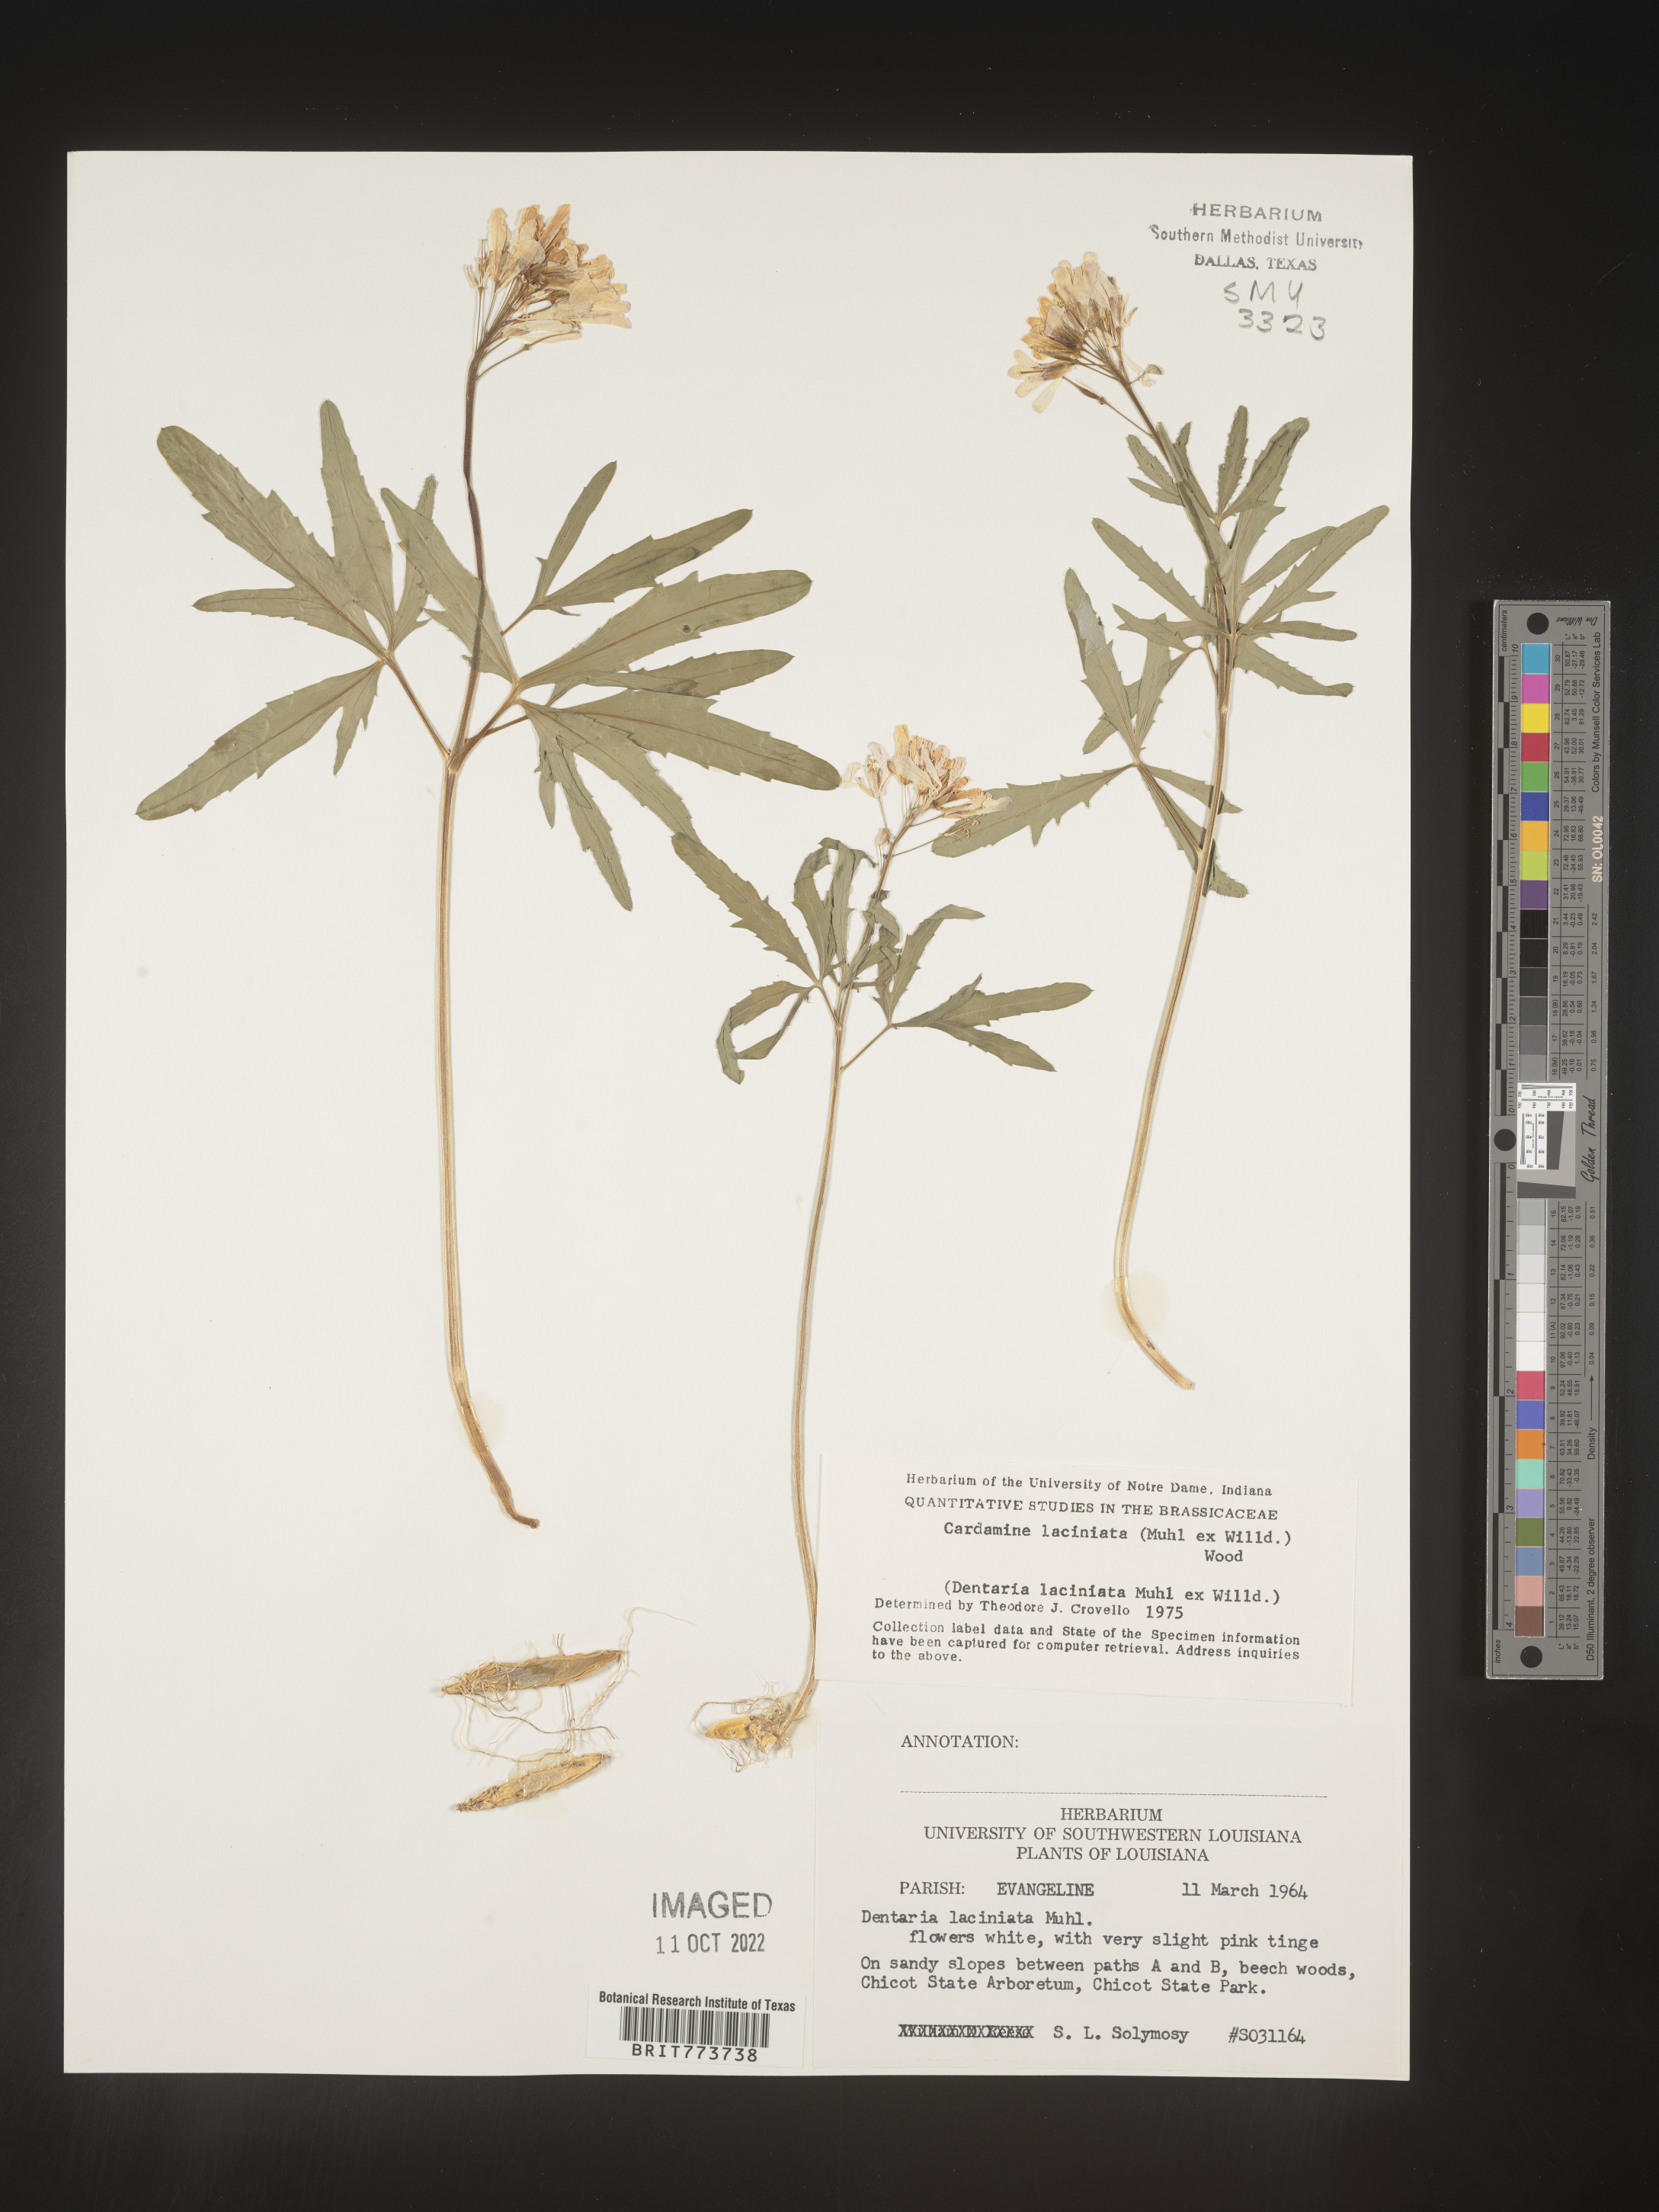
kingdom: Plantae
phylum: Tracheophyta
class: Magnoliopsida
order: Brassicales
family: Brassicaceae
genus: Rorippa
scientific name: Rorippa laciniata
